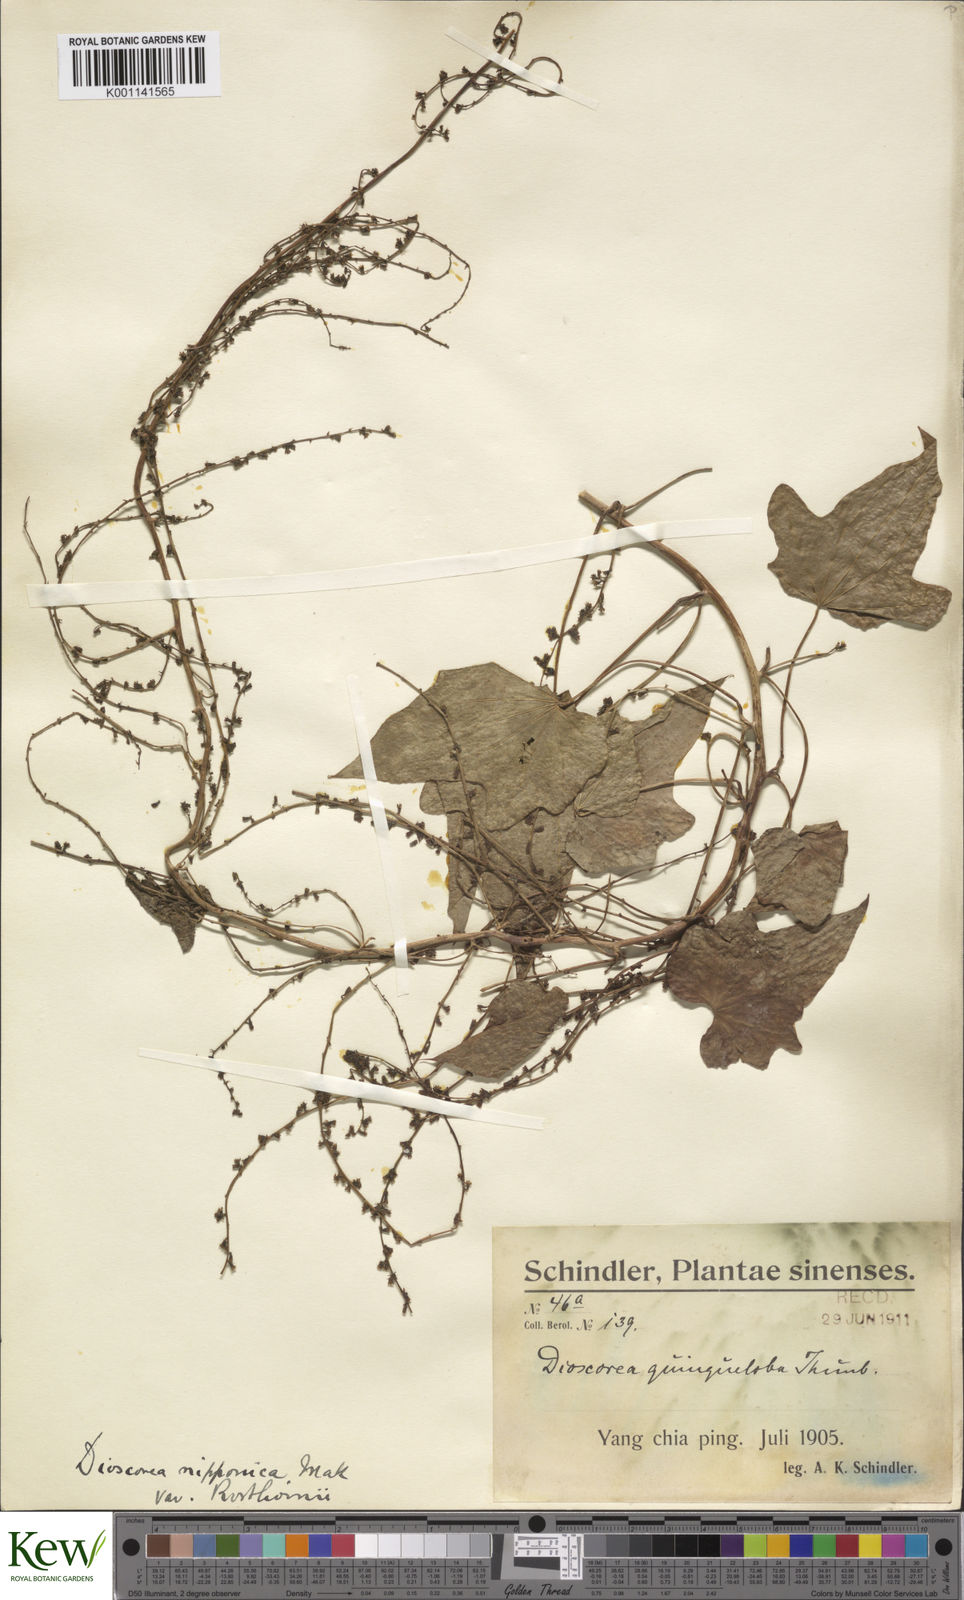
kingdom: Plantae
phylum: Tracheophyta
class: Liliopsida
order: Dioscoreales
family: Dioscoreaceae
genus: Dioscorea
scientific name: Dioscorea nipponica
